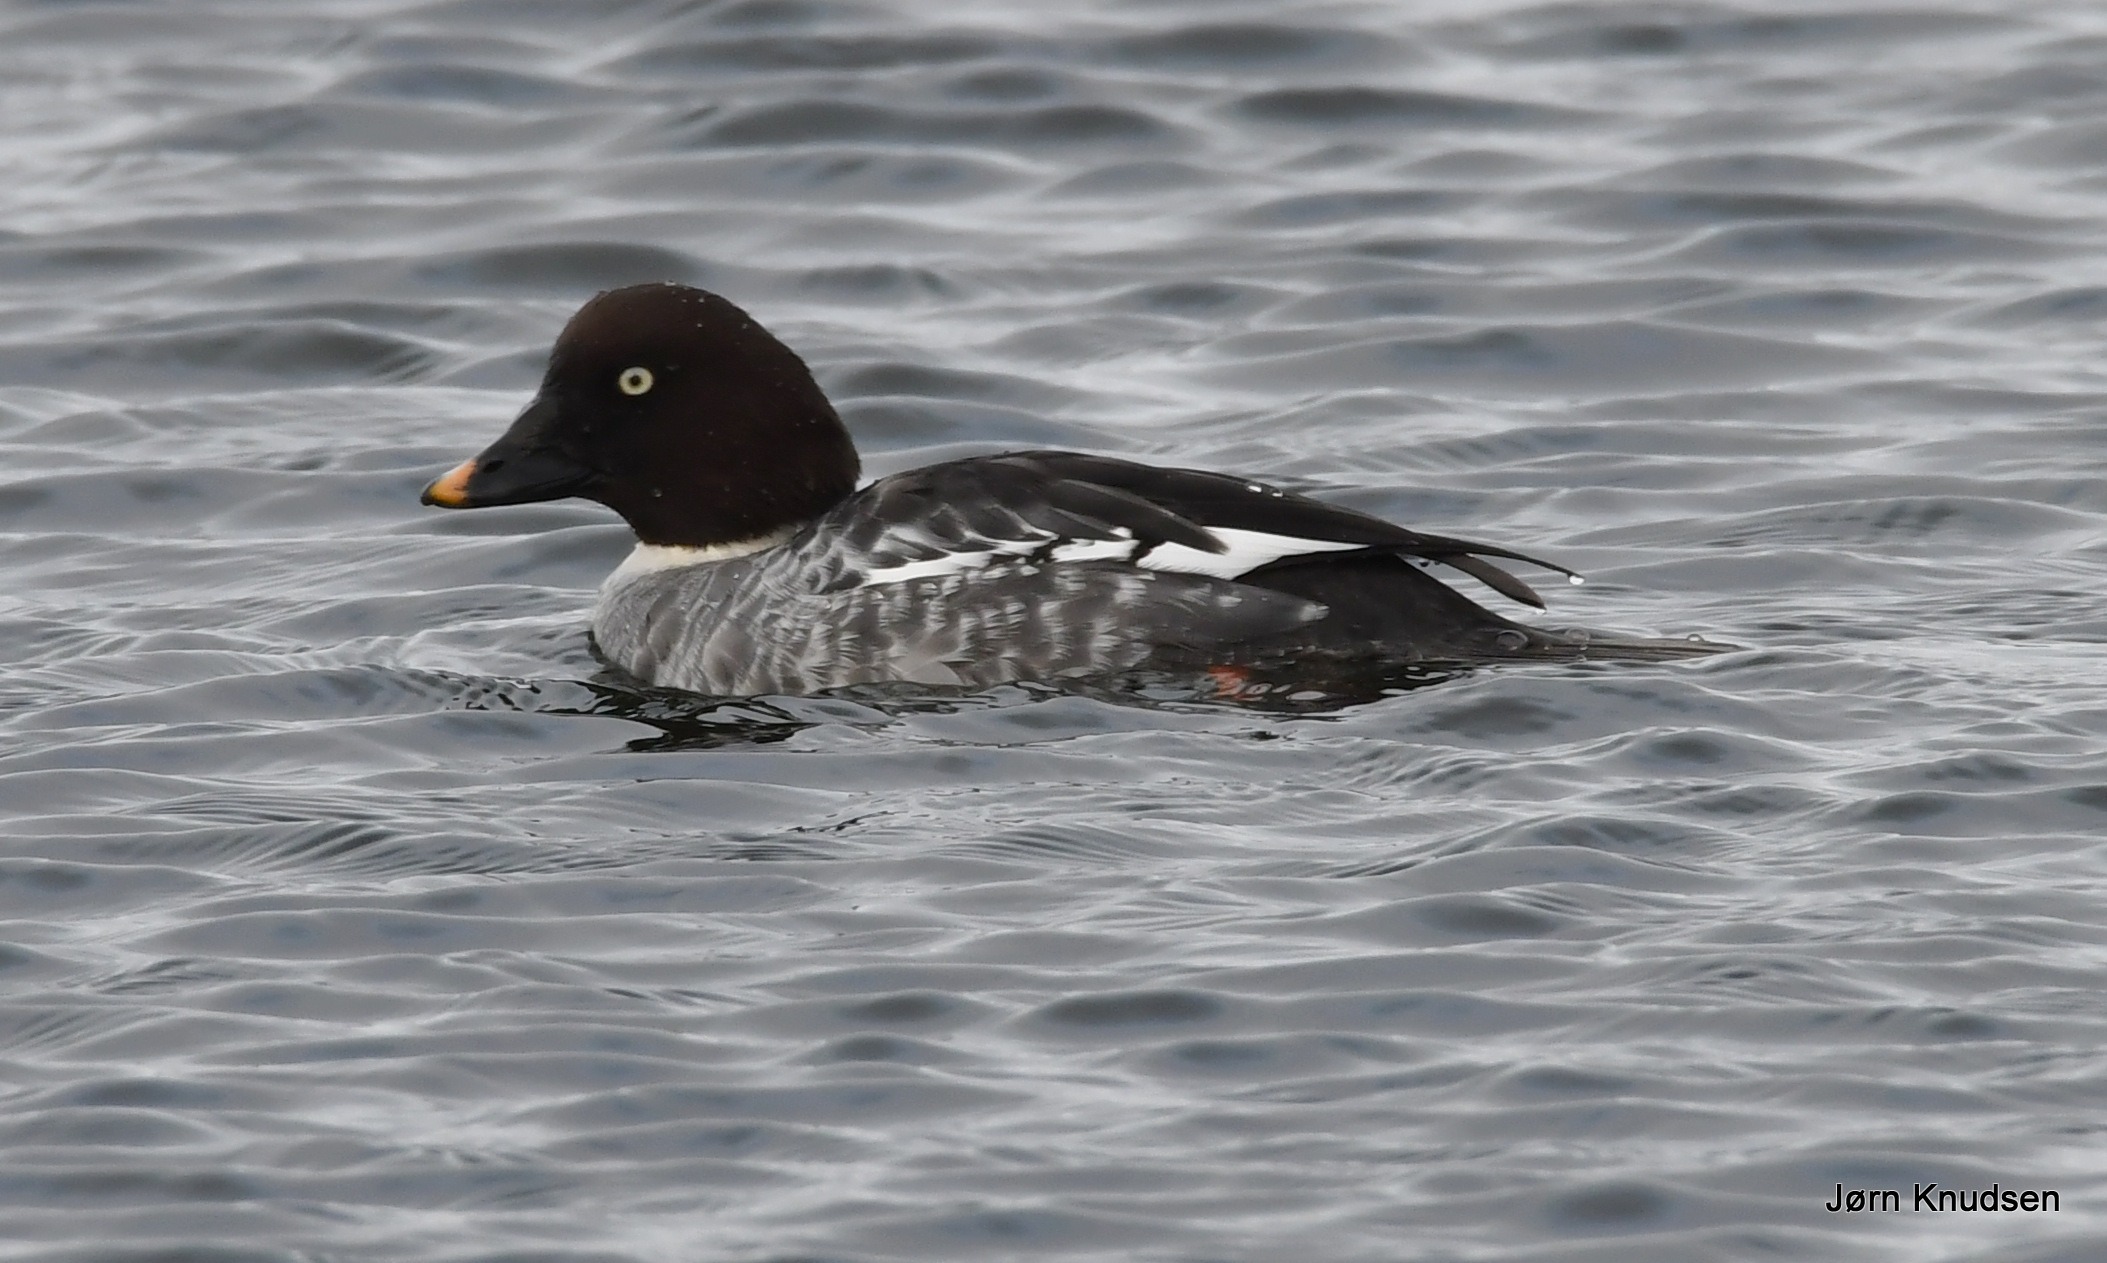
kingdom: Animalia
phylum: Chordata
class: Aves
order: Anseriformes
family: Anatidae
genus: Bucephala
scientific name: Bucephala clangula
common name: Hvinand
